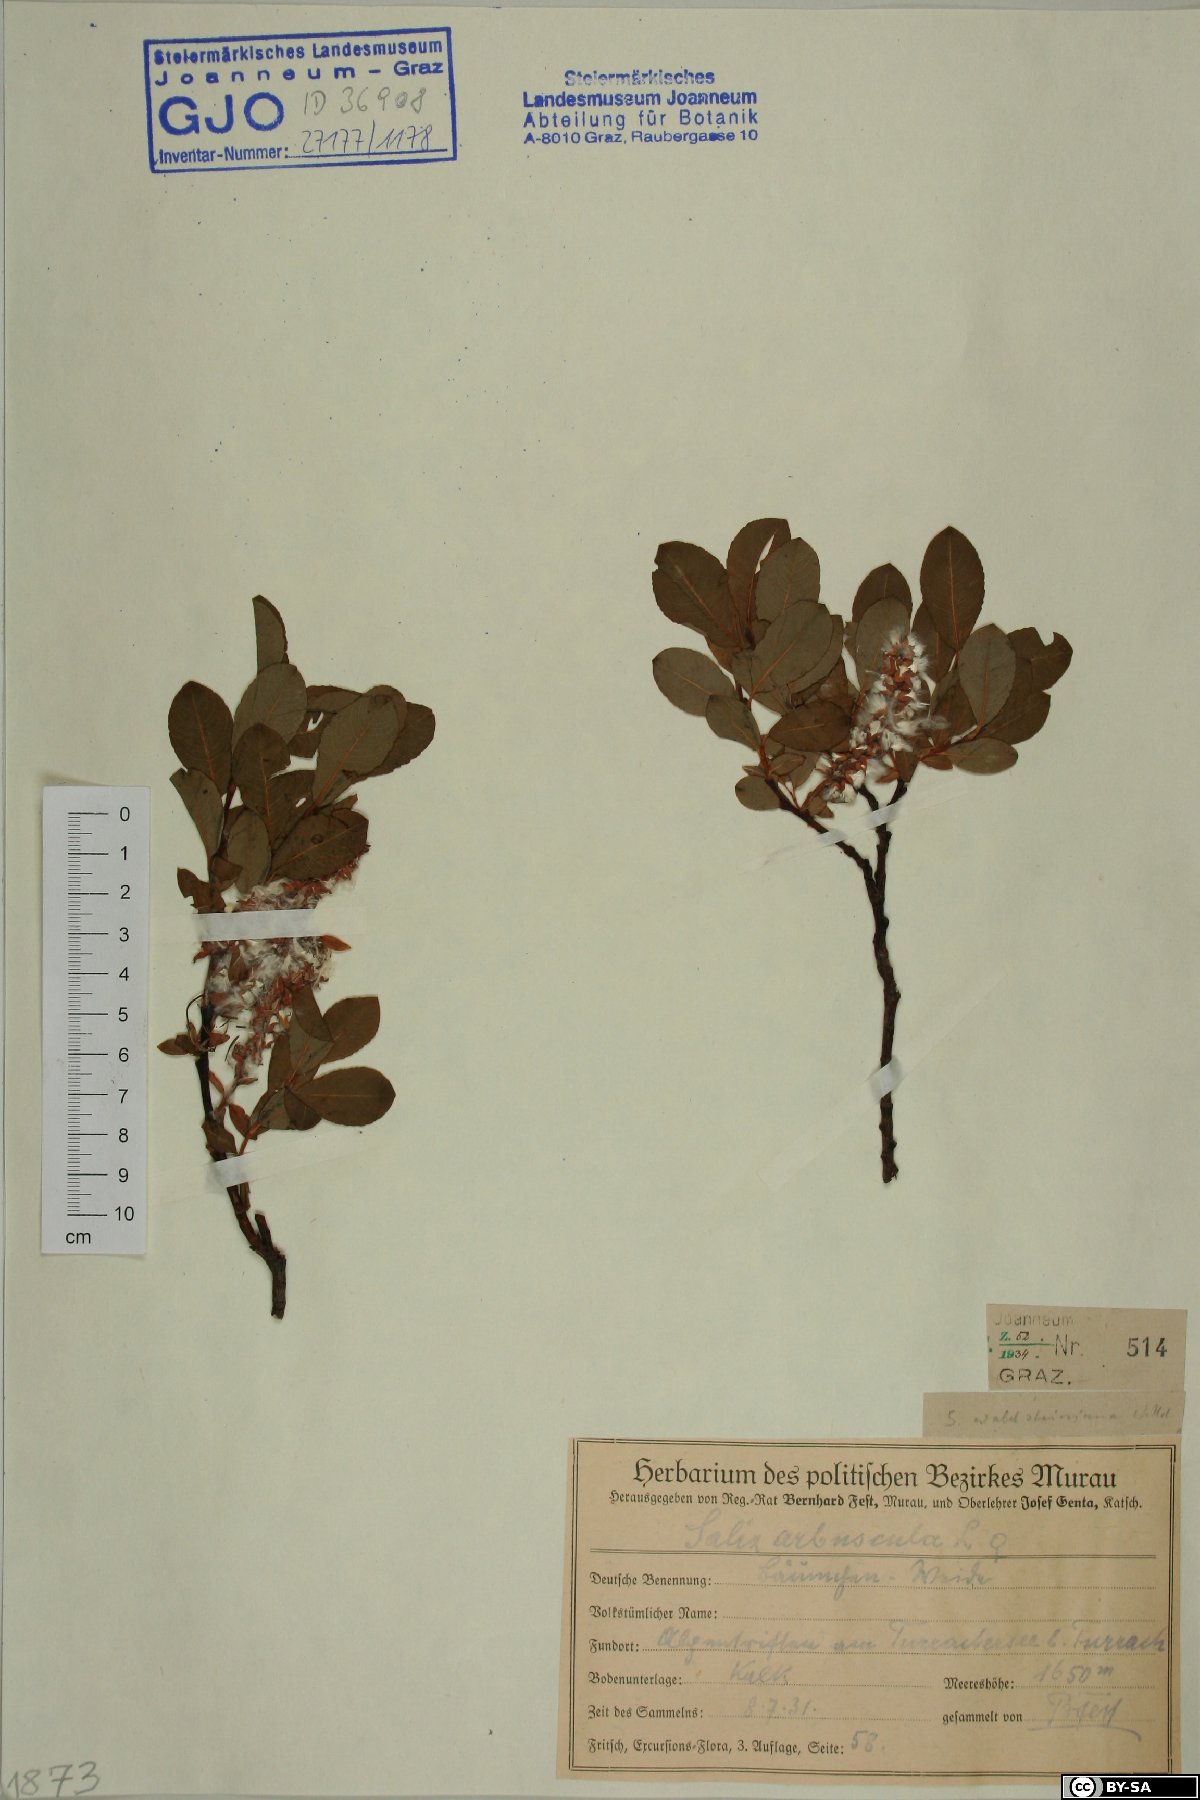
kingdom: Plantae
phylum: Tracheophyta
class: Magnoliopsida
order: Malpighiales
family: Salicaceae
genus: Salix
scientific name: Salix waldsteiniana
